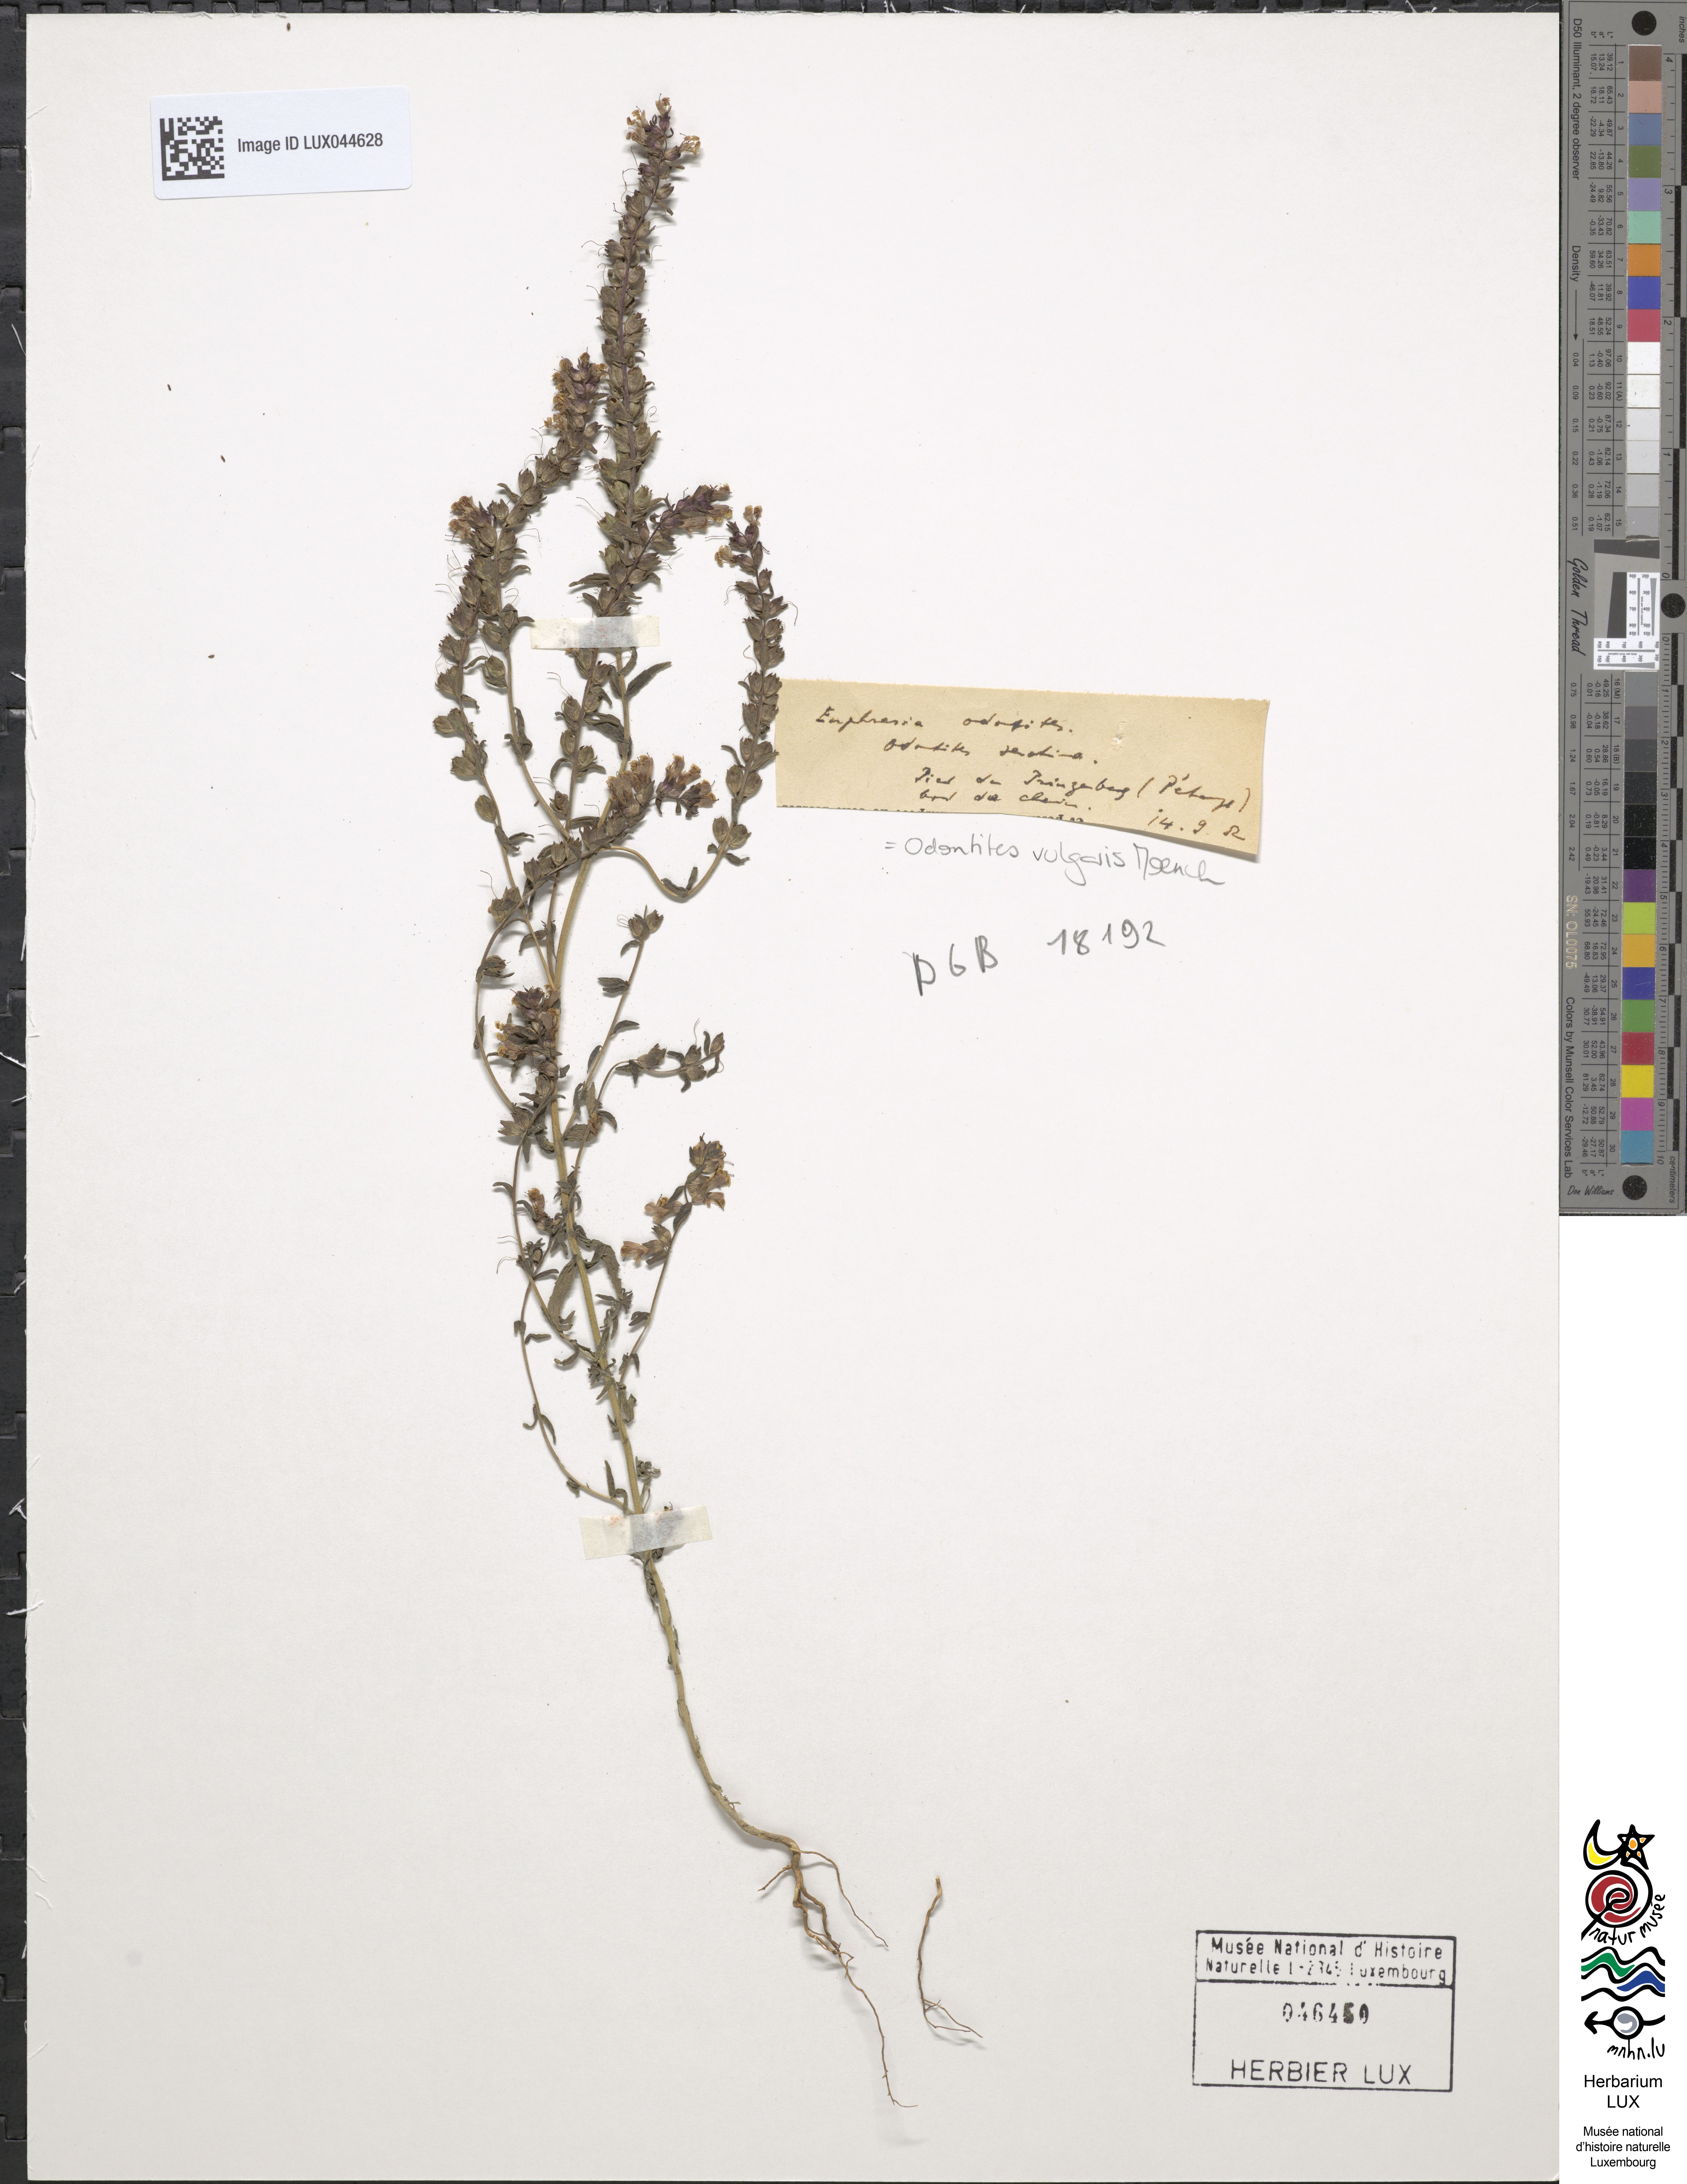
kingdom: Plantae
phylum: Tracheophyta
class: Magnoliopsida
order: Lamiales
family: Orobanchaceae
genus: Odontites
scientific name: Odontites vernus
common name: Red bartsia
